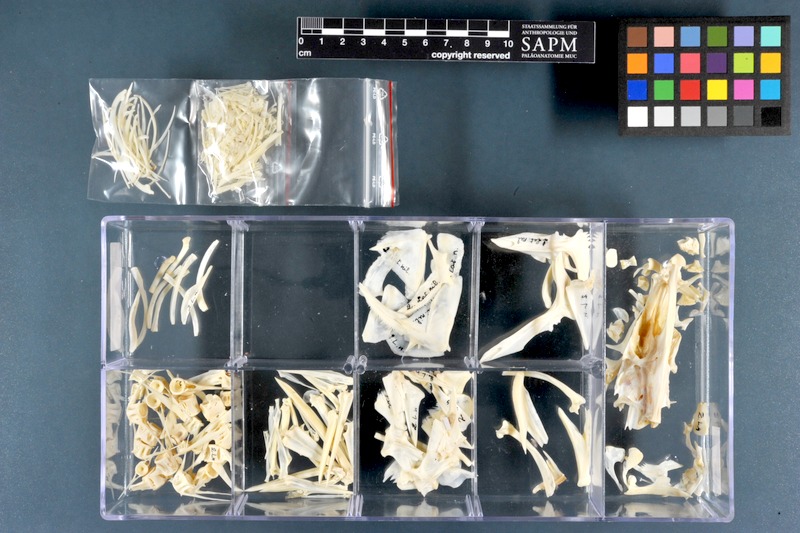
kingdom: Animalia
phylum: Chordata
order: Perciformes
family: Latidae
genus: Lates
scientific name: Lates niloticus
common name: Nile perch
